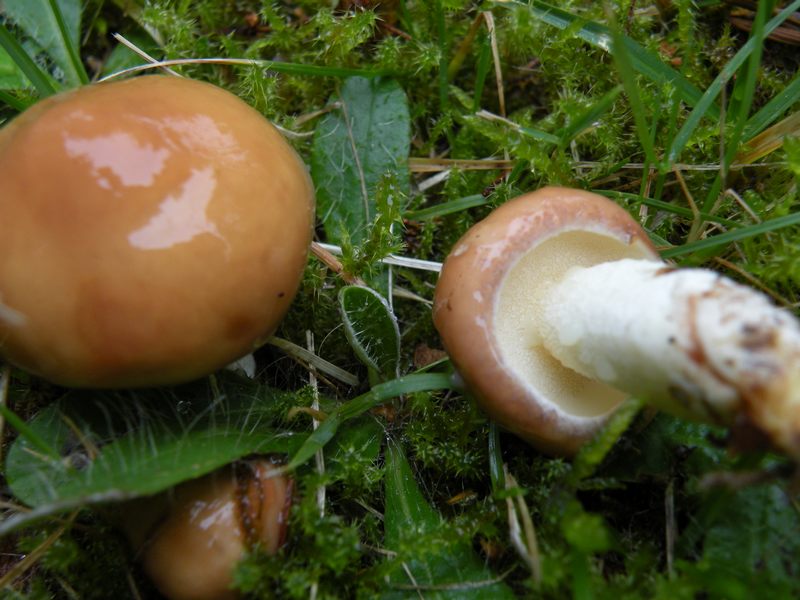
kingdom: Fungi
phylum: Basidiomycota
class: Agaricomycetes
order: Boletales
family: Suillaceae
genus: Suillus
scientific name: Suillus granulatus
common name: kornet slimrørhat
